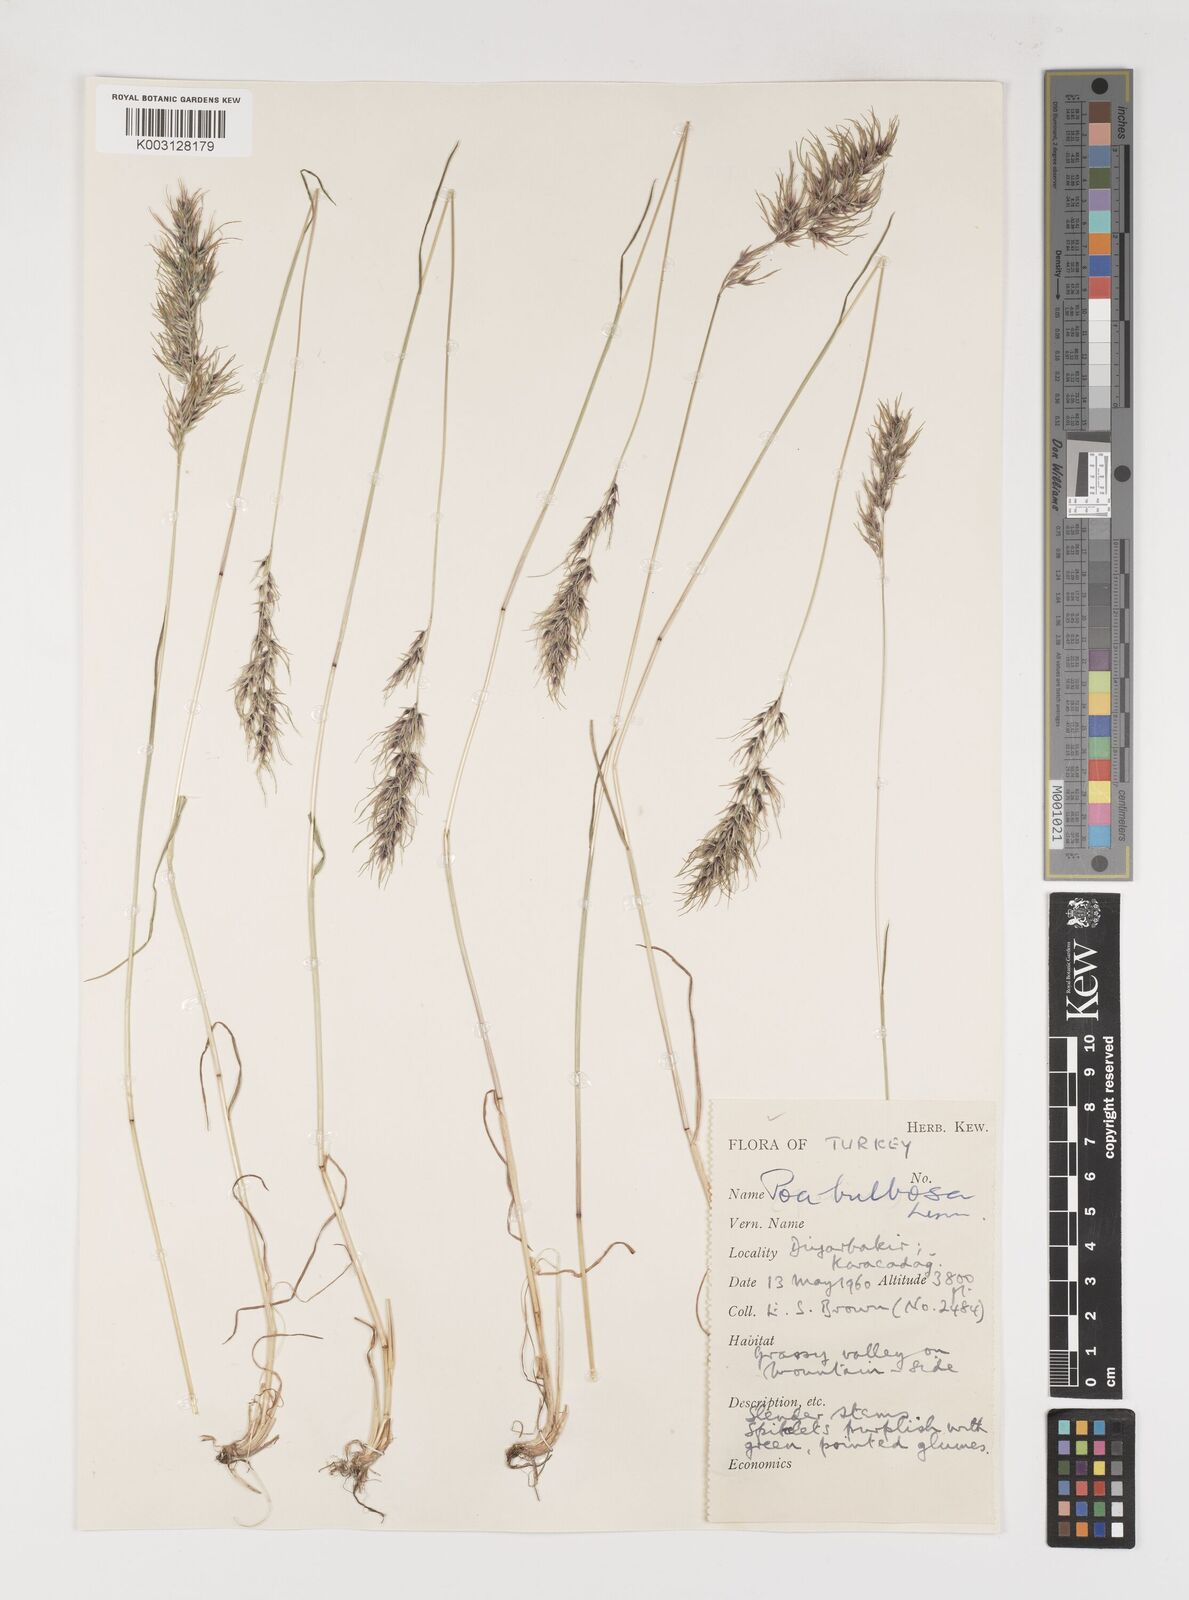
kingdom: Plantae
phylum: Tracheophyta
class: Liliopsida
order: Poales
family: Poaceae
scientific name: Poaceae
